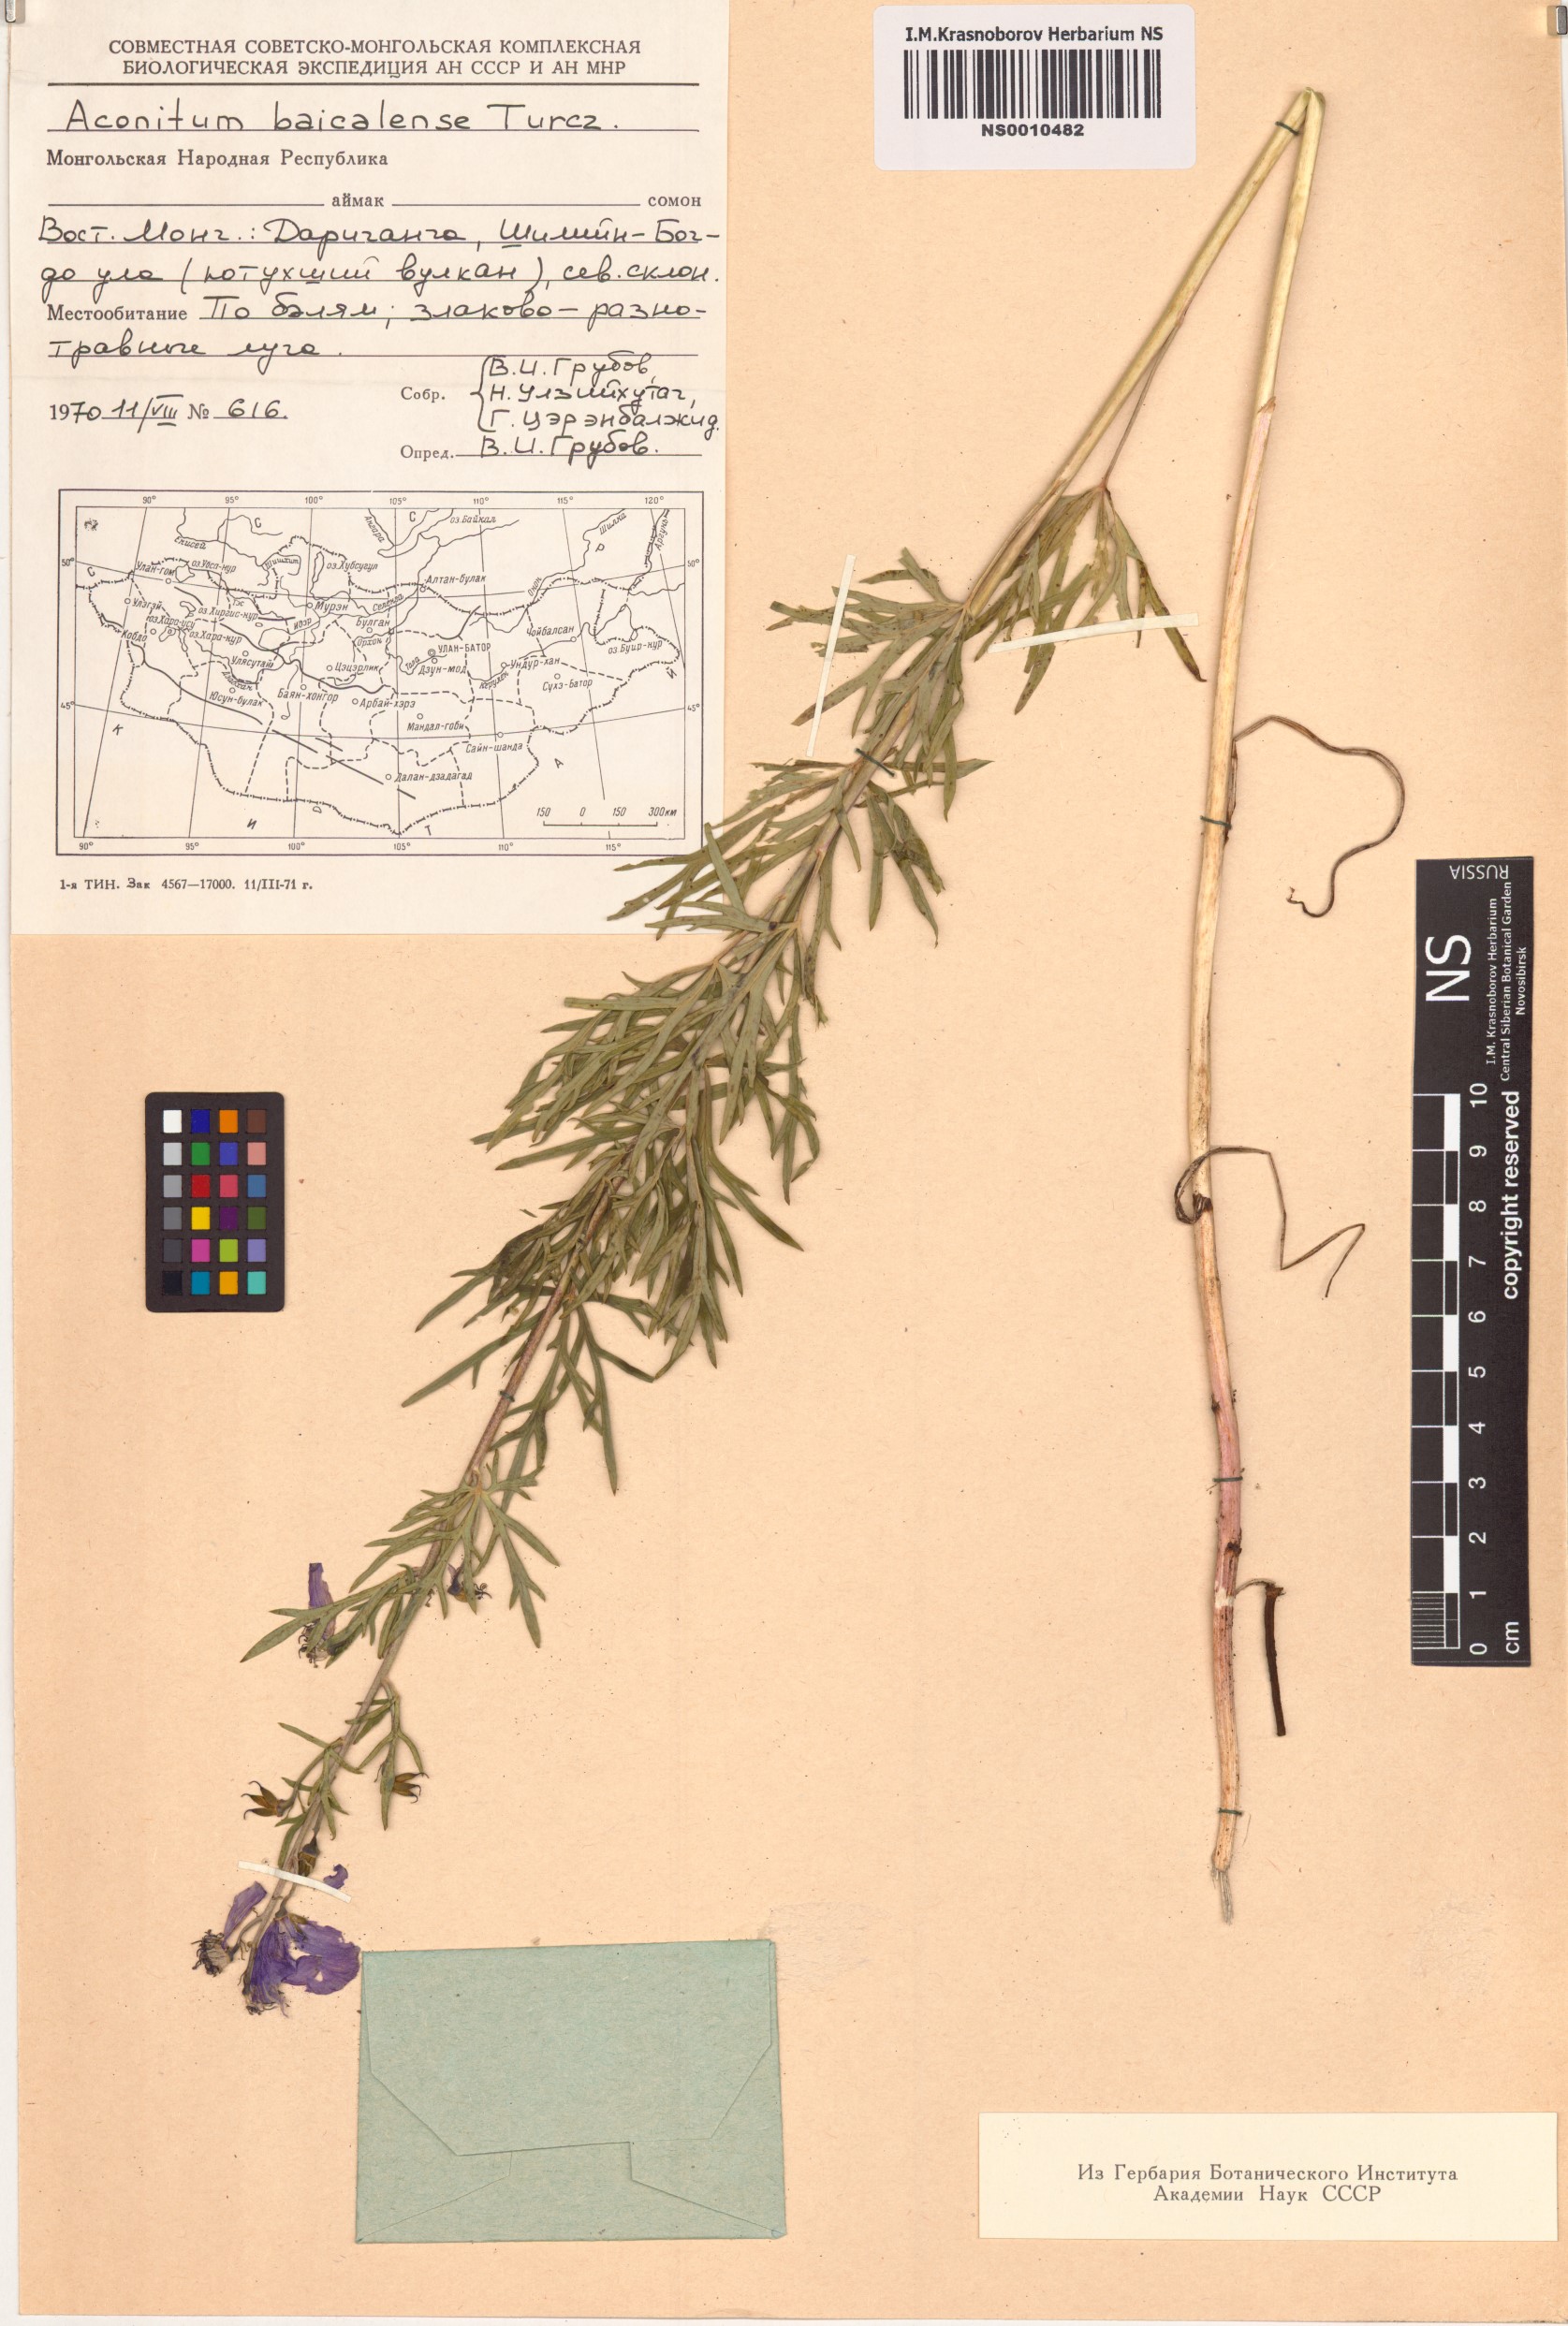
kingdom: Plantae
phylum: Tracheophyta
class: Magnoliopsida
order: Ranunculales
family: Ranunculaceae
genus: Aconitum
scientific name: Aconitum ambiguum
